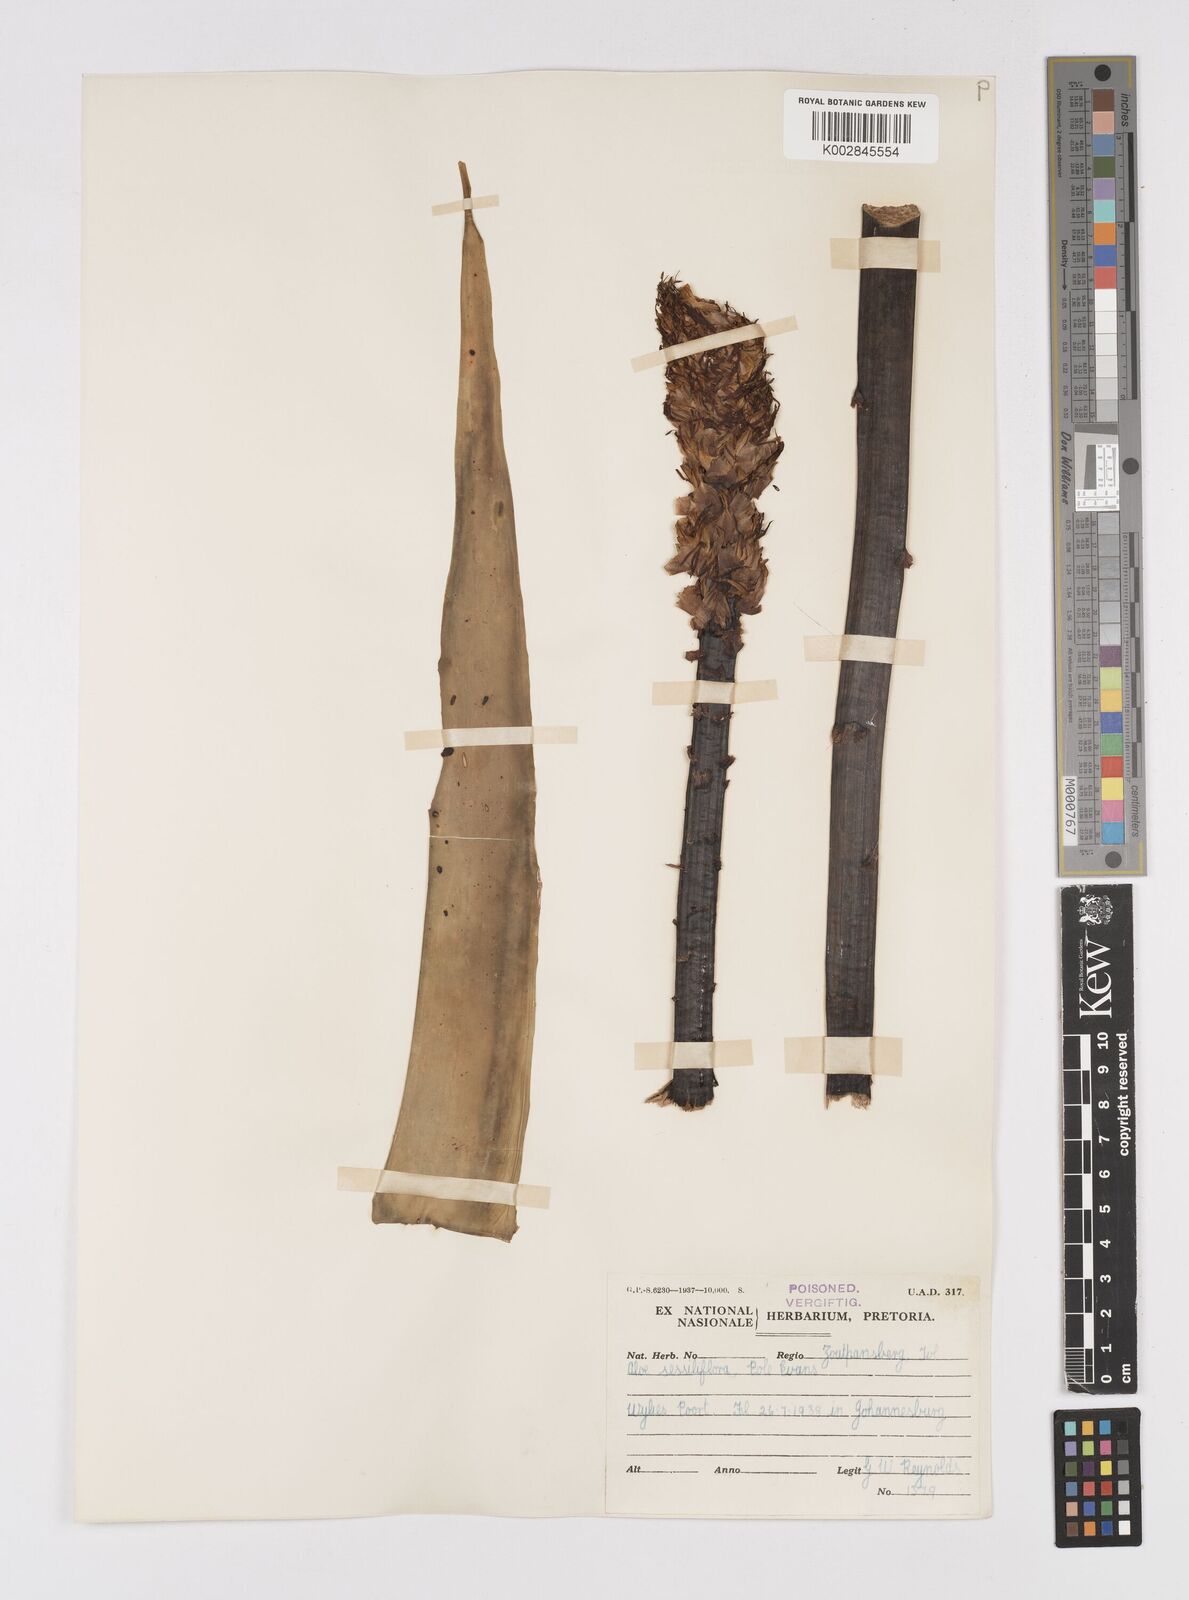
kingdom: Plantae
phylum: Tracheophyta
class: Liliopsida
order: Asparagales
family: Asphodelaceae
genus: Aloe
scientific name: Aloe spicata
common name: Gazaland aloe
